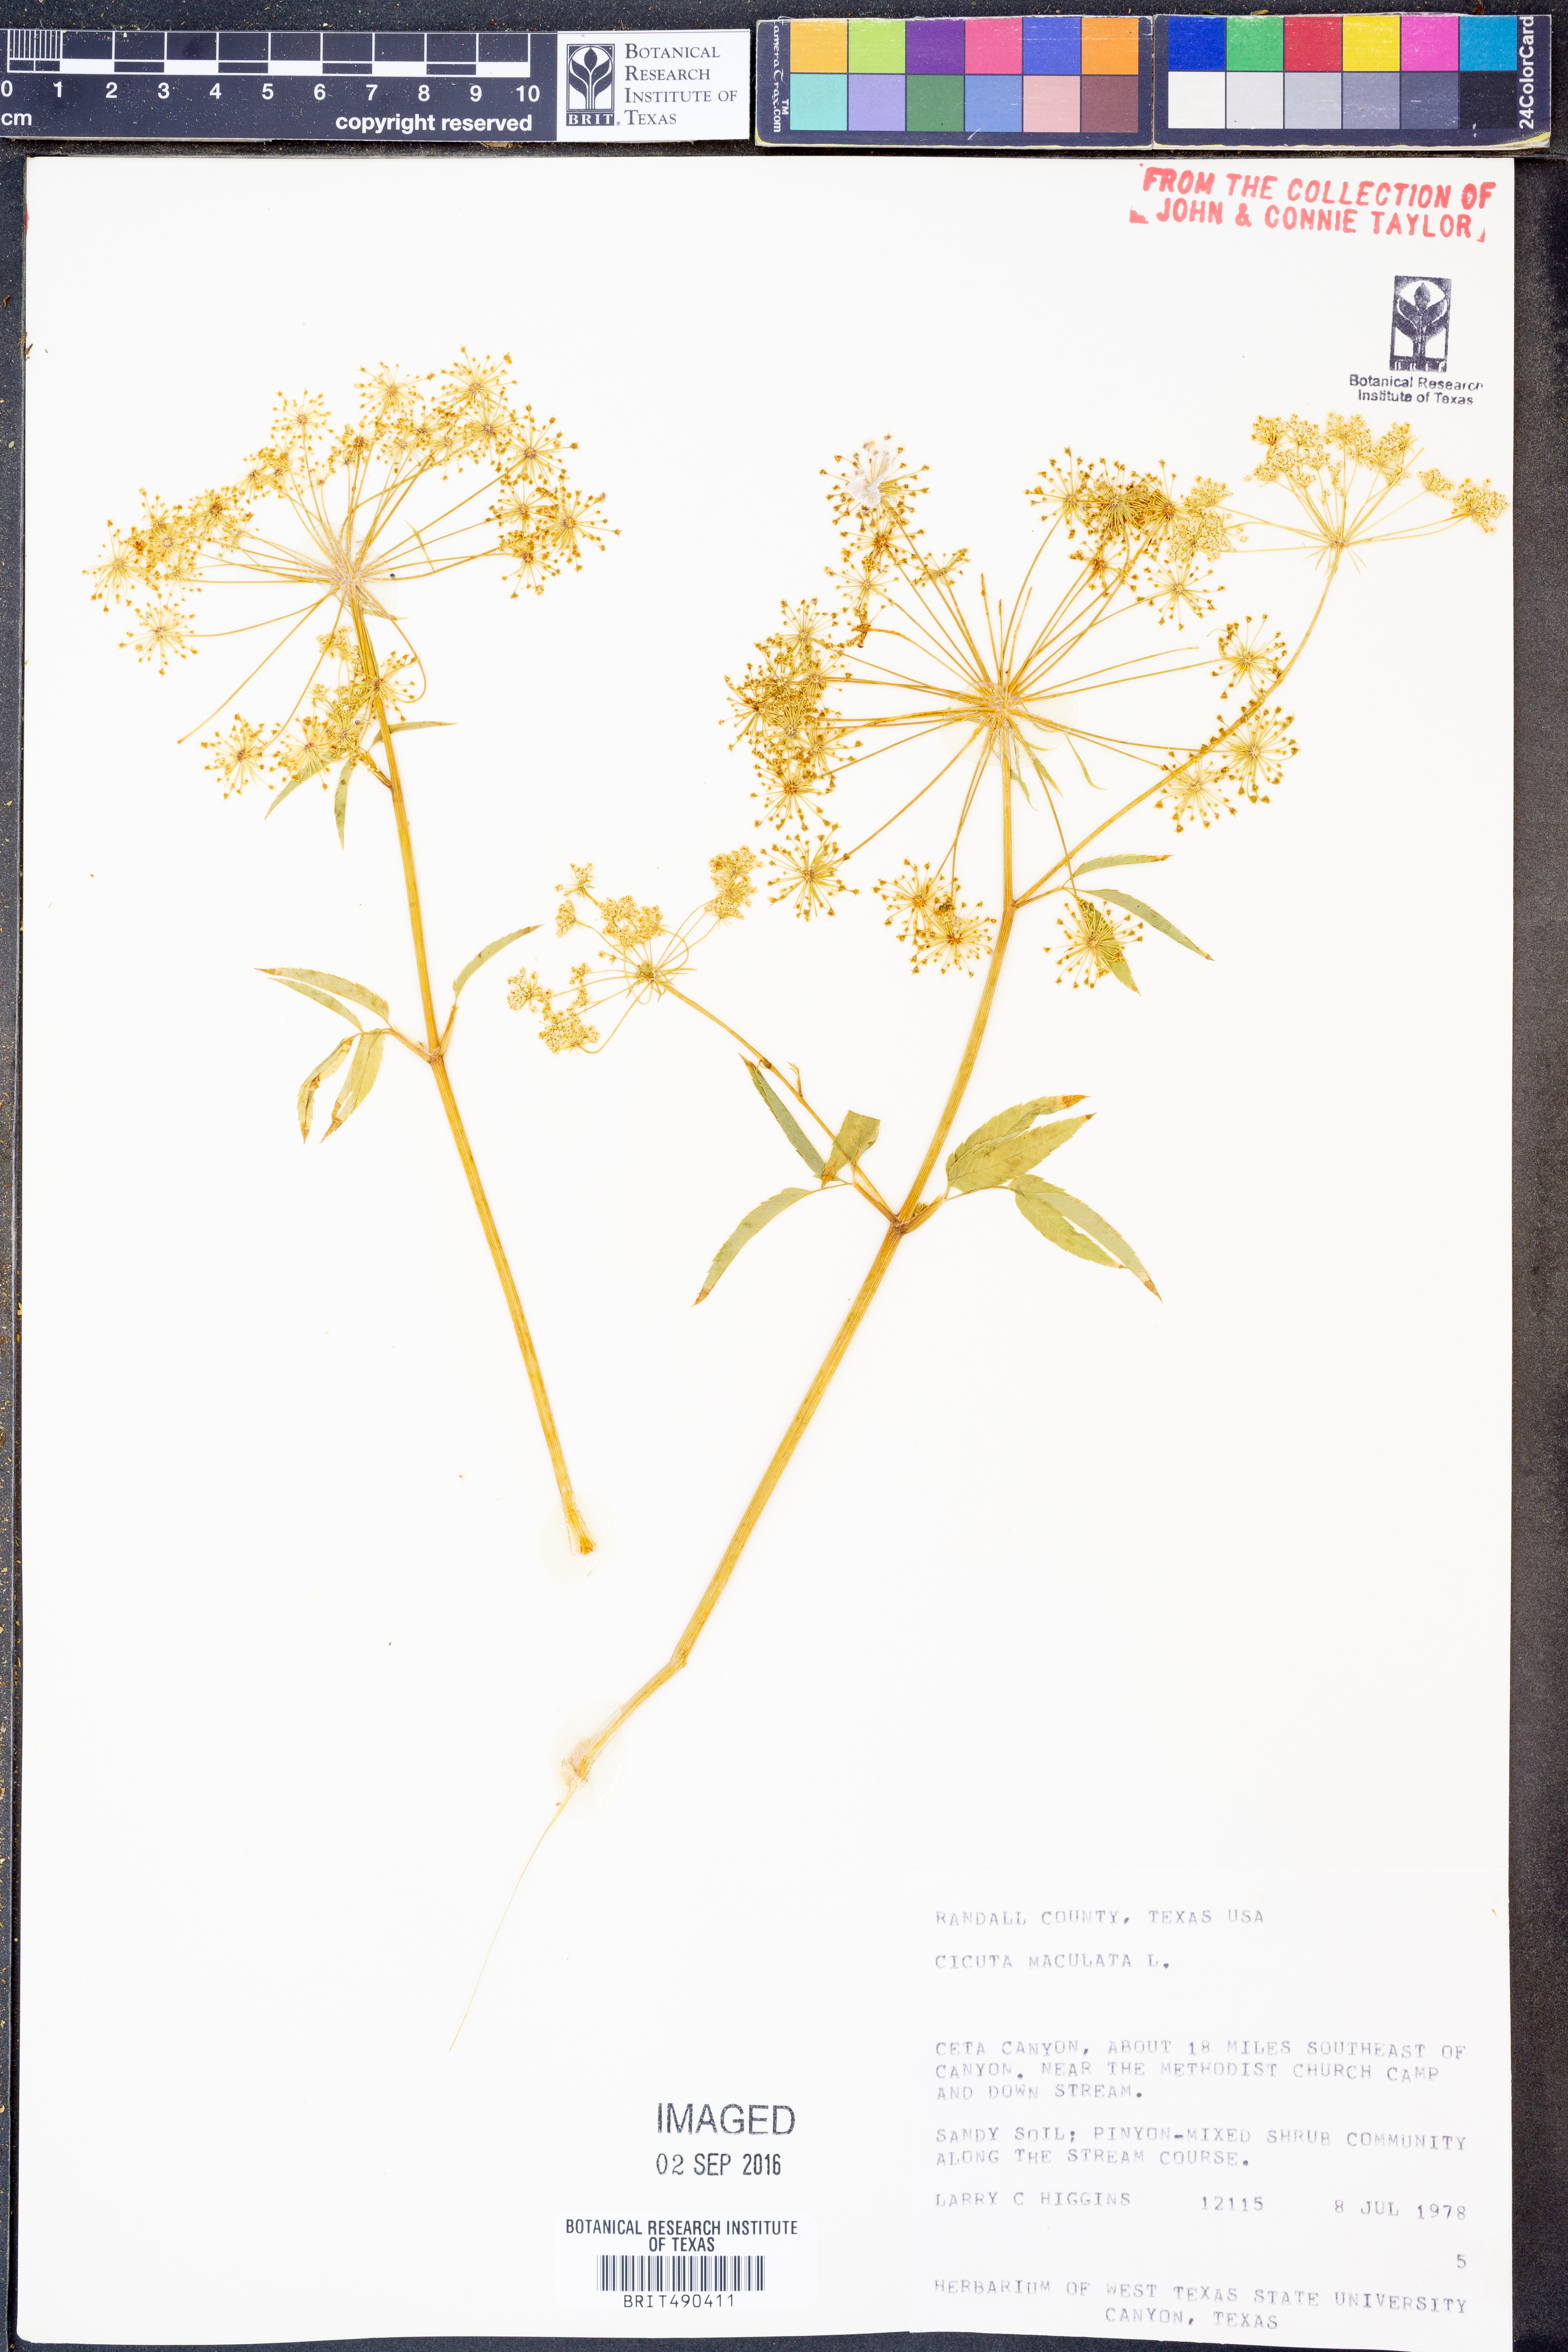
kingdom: Plantae
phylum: Tracheophyta
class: Magnoliopsida
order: Apiales
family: Apiaceae
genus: Cicuta
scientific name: Cicuta maculata
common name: Spotted cowbane
